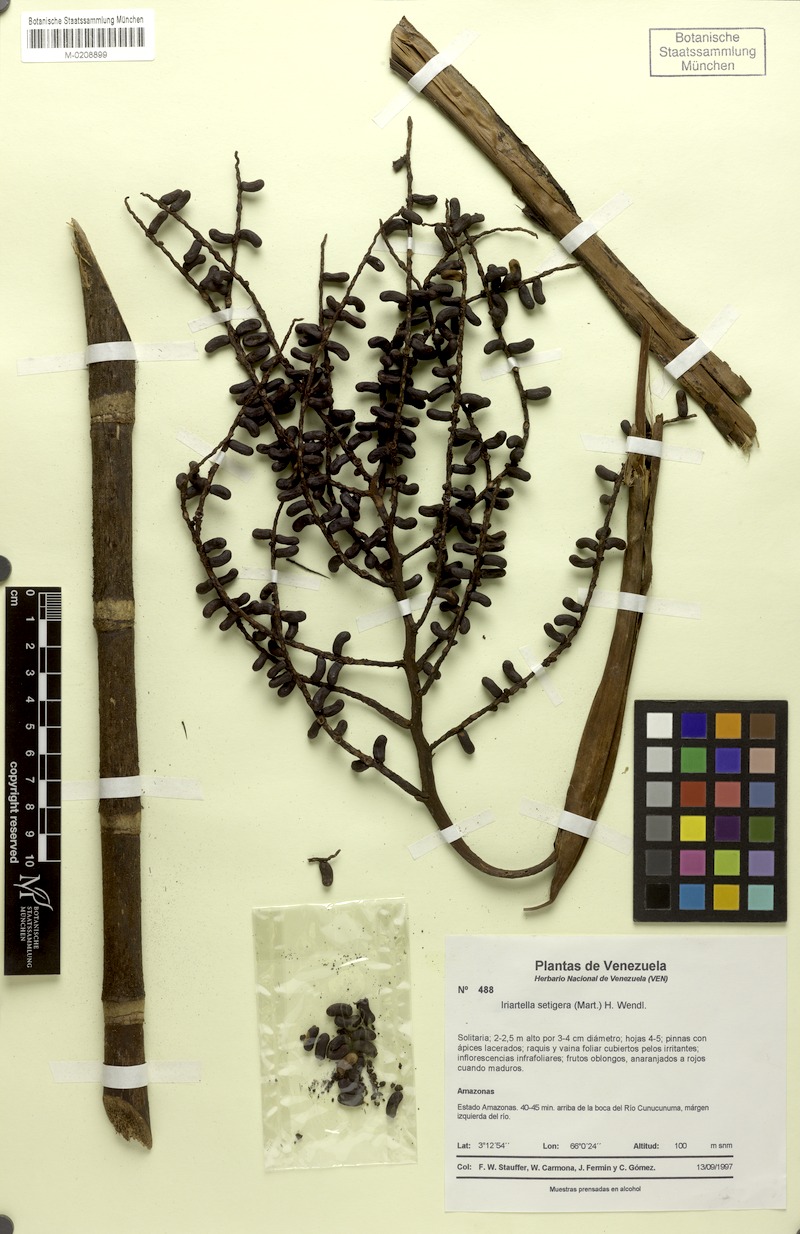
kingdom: Plantae
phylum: Tracheophyta
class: Liliopsida
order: Arecales
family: Arecaceae
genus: Iriartella
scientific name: Iriartella setigera
